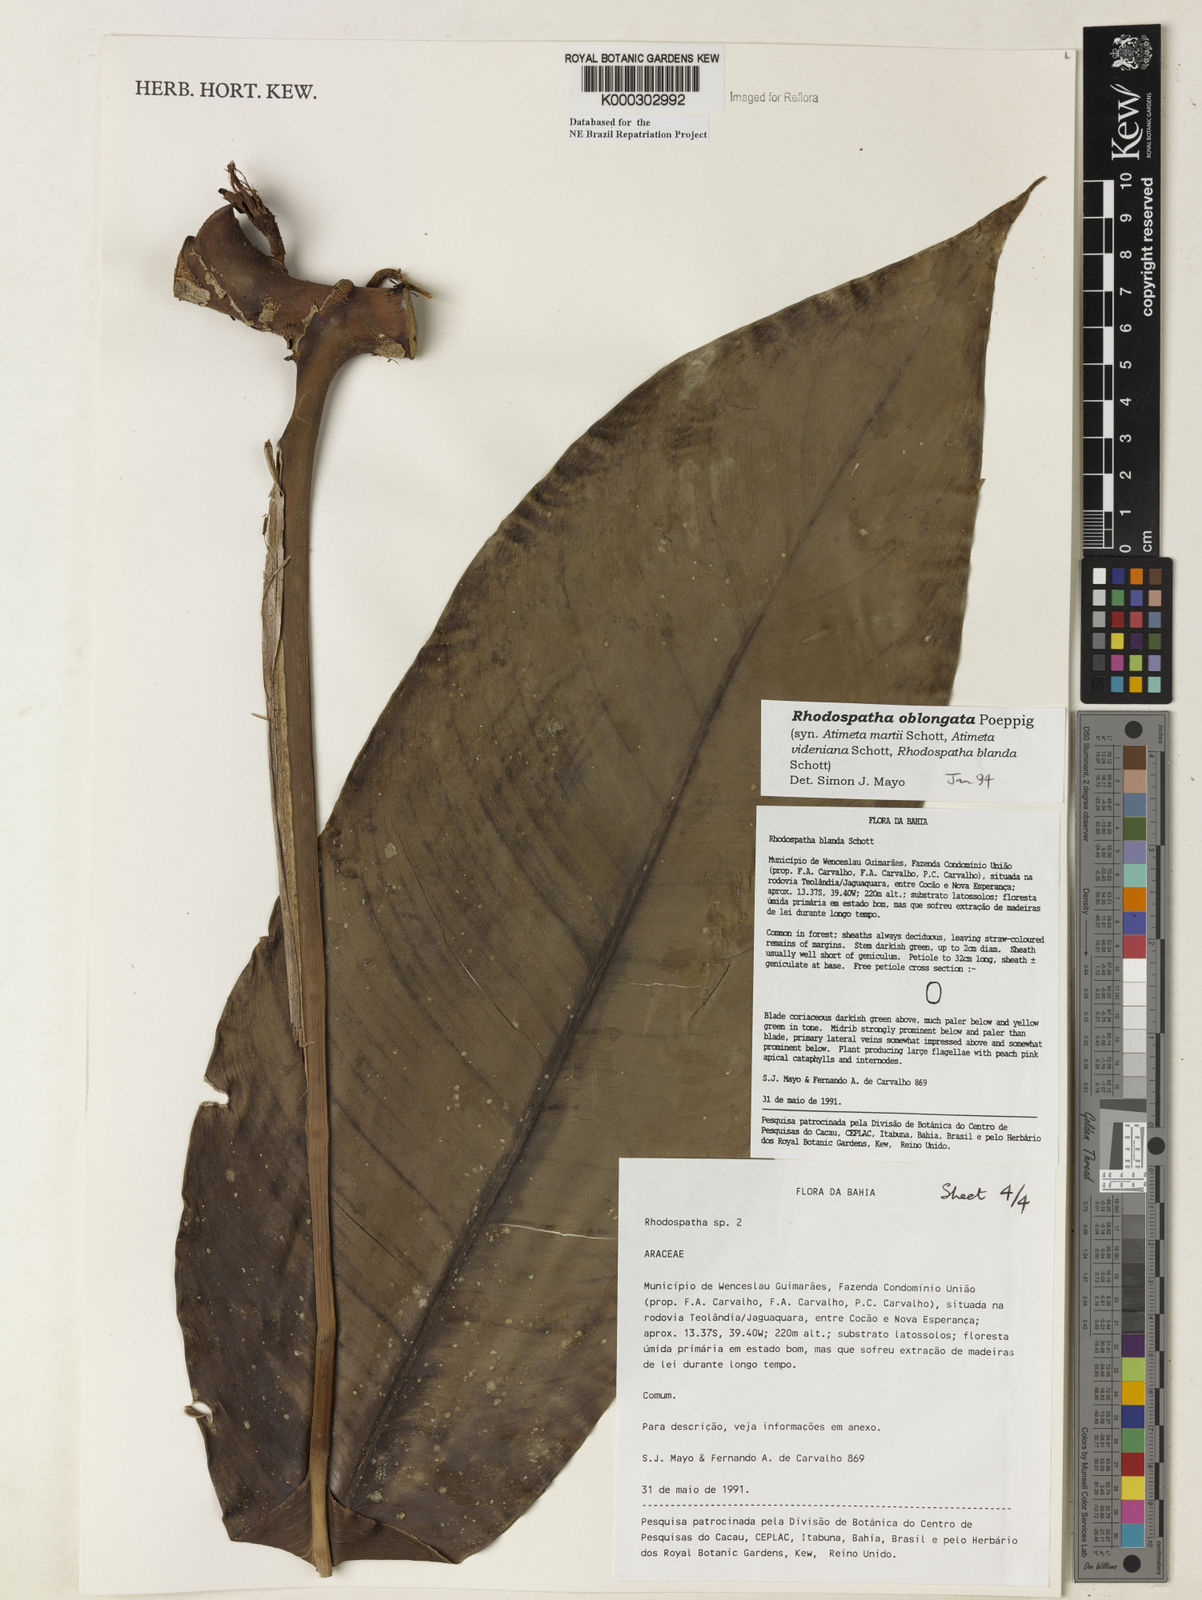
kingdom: Plantae
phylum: Tracheophyta
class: Liliopsida
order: Alismatales
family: Araceae
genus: Rhodospatha
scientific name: Rhodospatha oblongata
